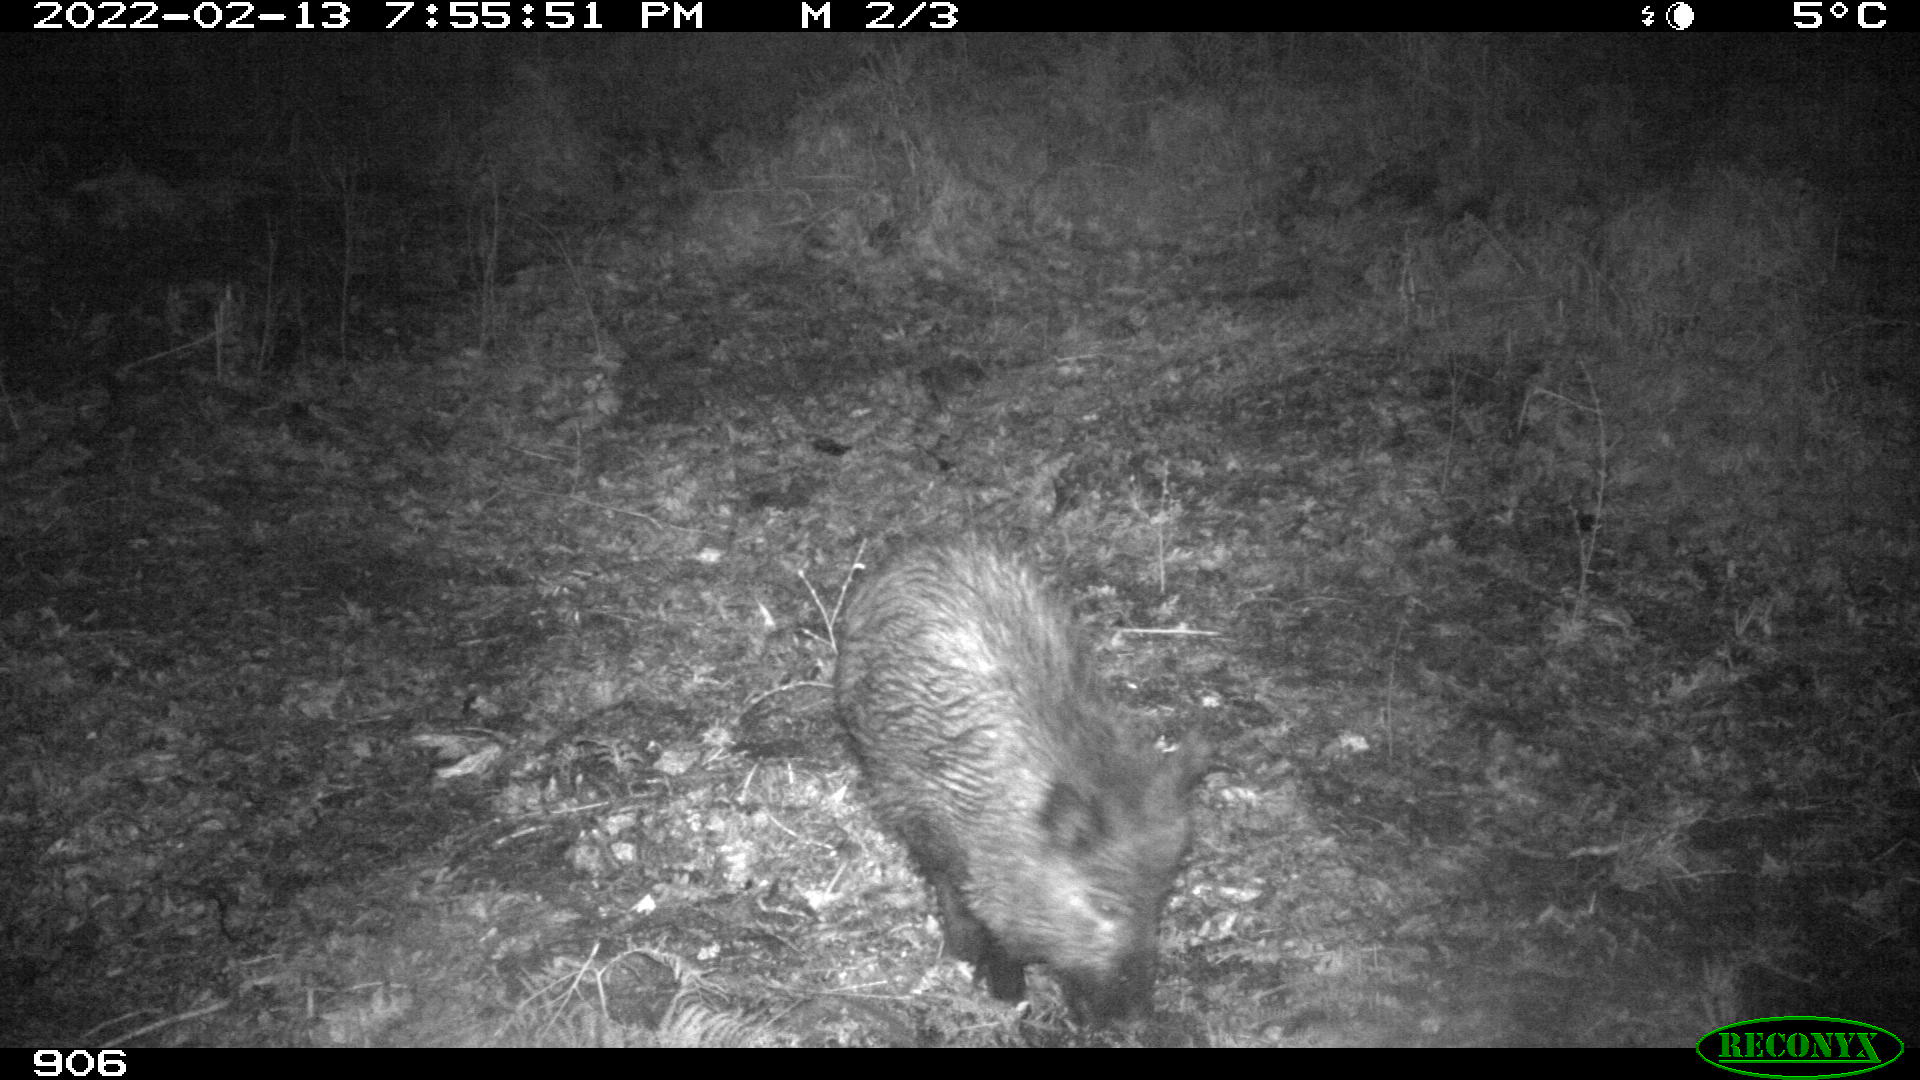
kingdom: Animalia
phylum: Chordata
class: Mammalia
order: Artiodactyla
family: Suidae
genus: Sus
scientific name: Sus scrofa
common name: Wild boar
